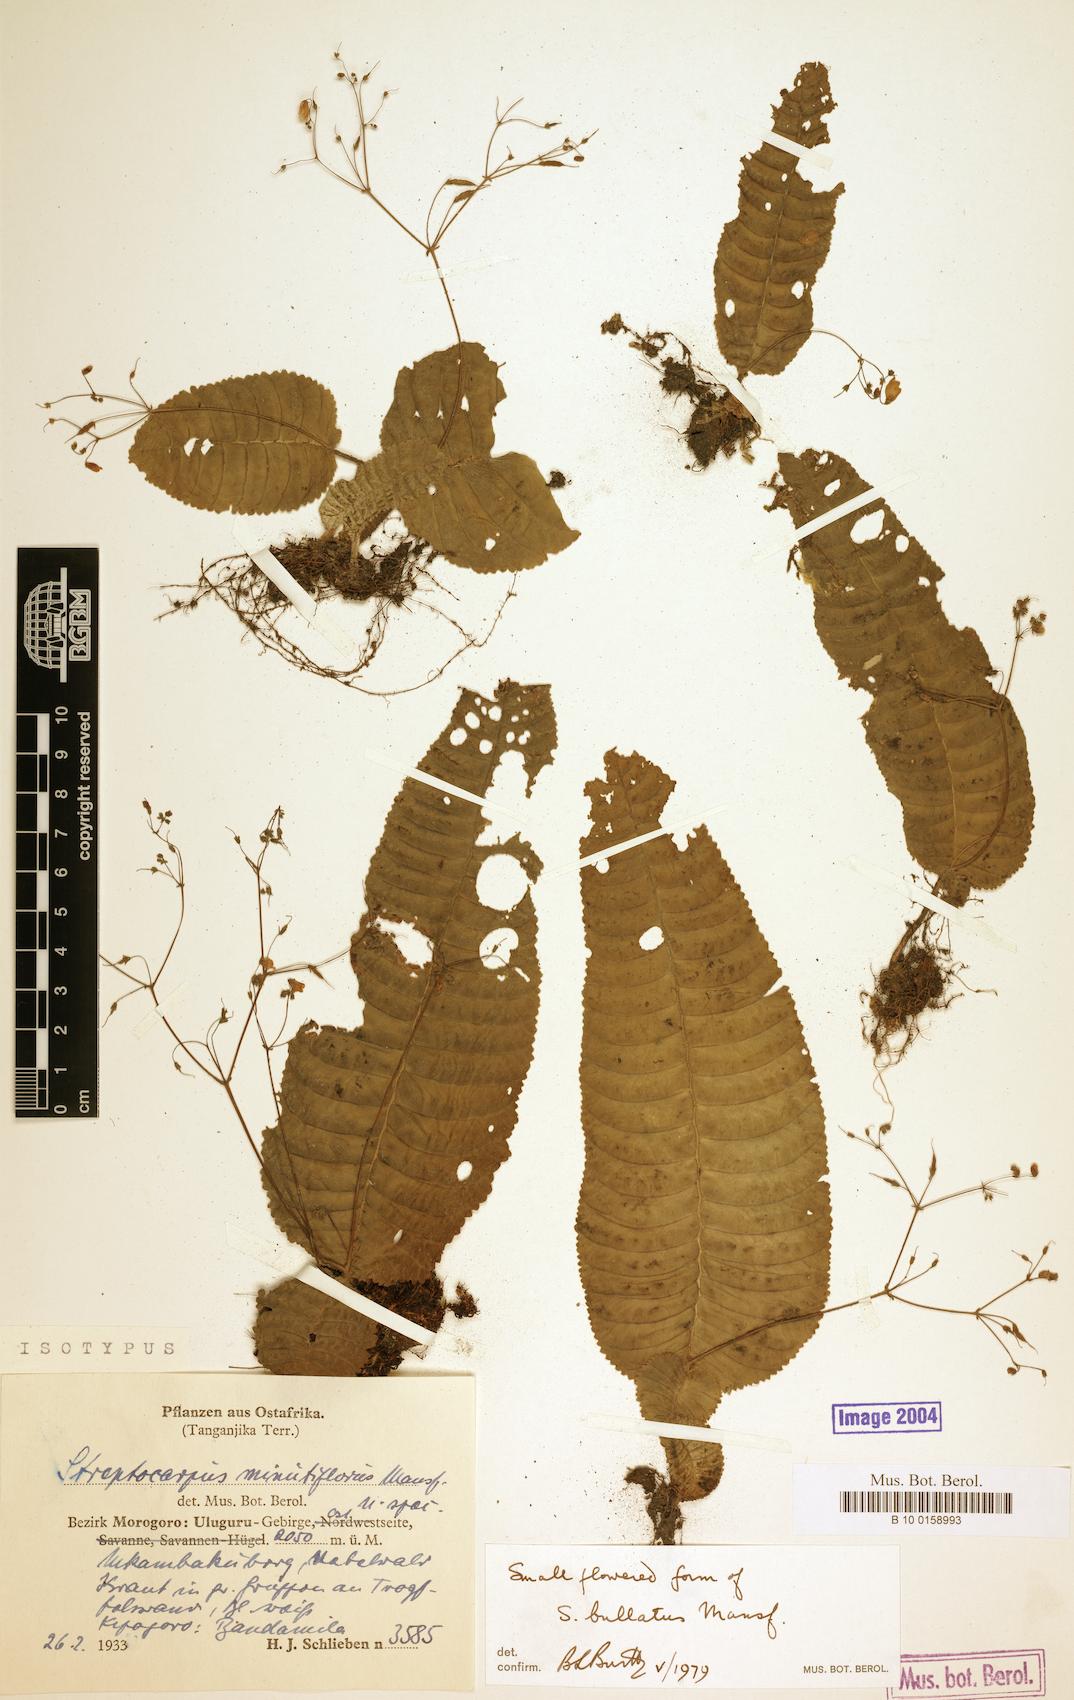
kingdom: Plantae
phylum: Tracheophyta
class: Magnoliopsida
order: Lamiales
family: Gesneriaceae
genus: Streptocarpus
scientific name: Streptocarpus bullatus
